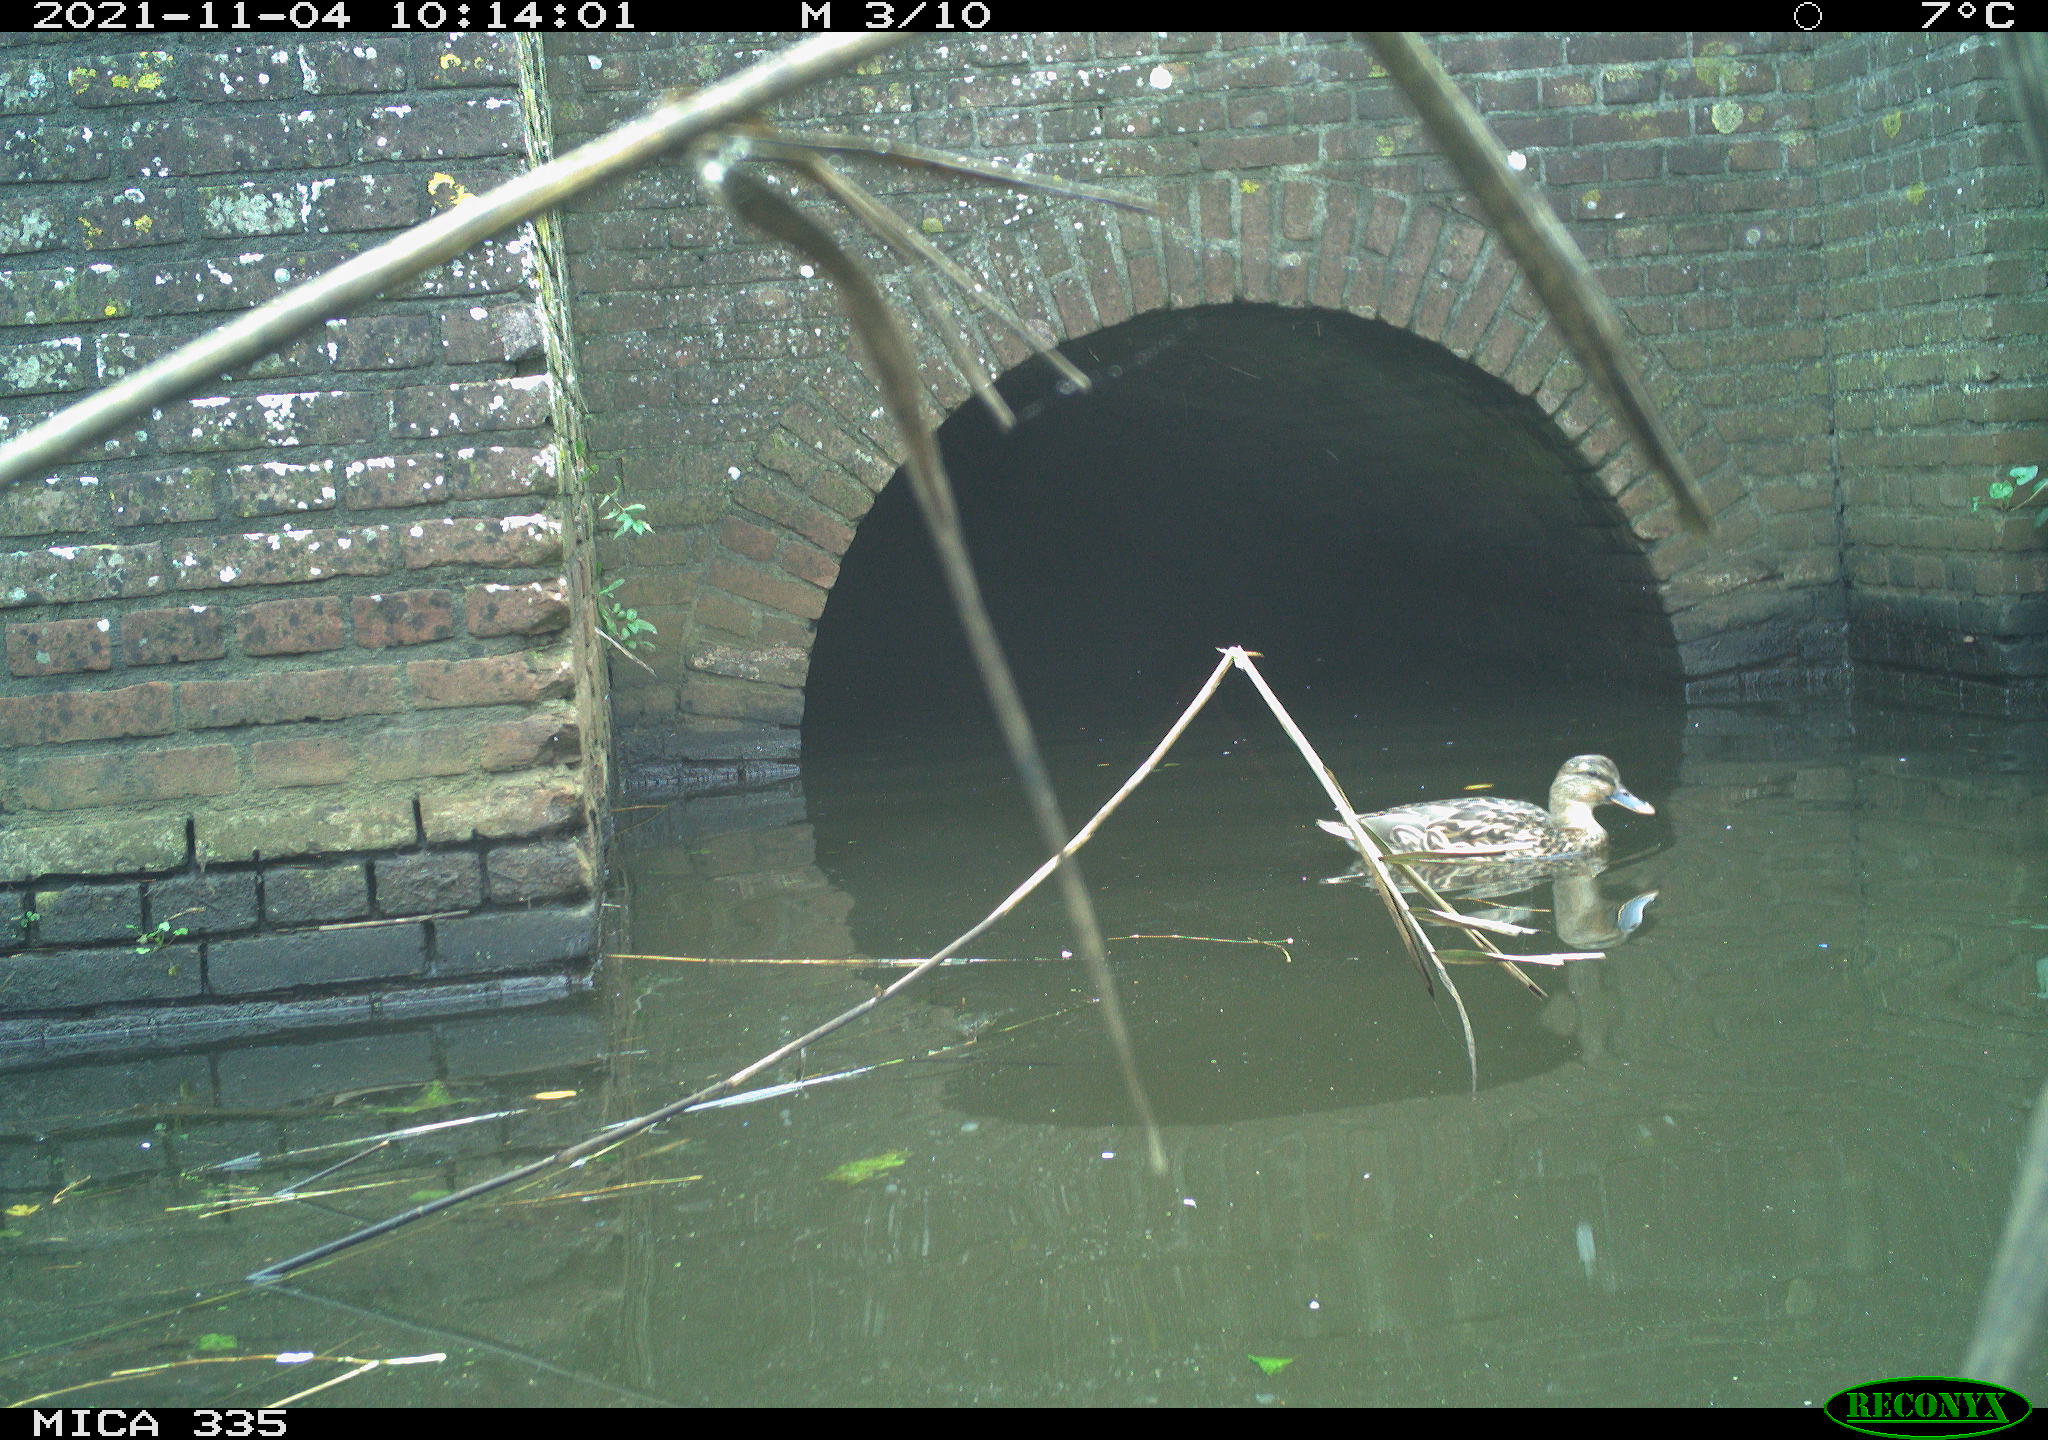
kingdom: Animalia
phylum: Chordata
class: Aves
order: Anseriformes
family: Anatidae
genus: Anas
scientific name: Anas platyrhynchos
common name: Mallard
